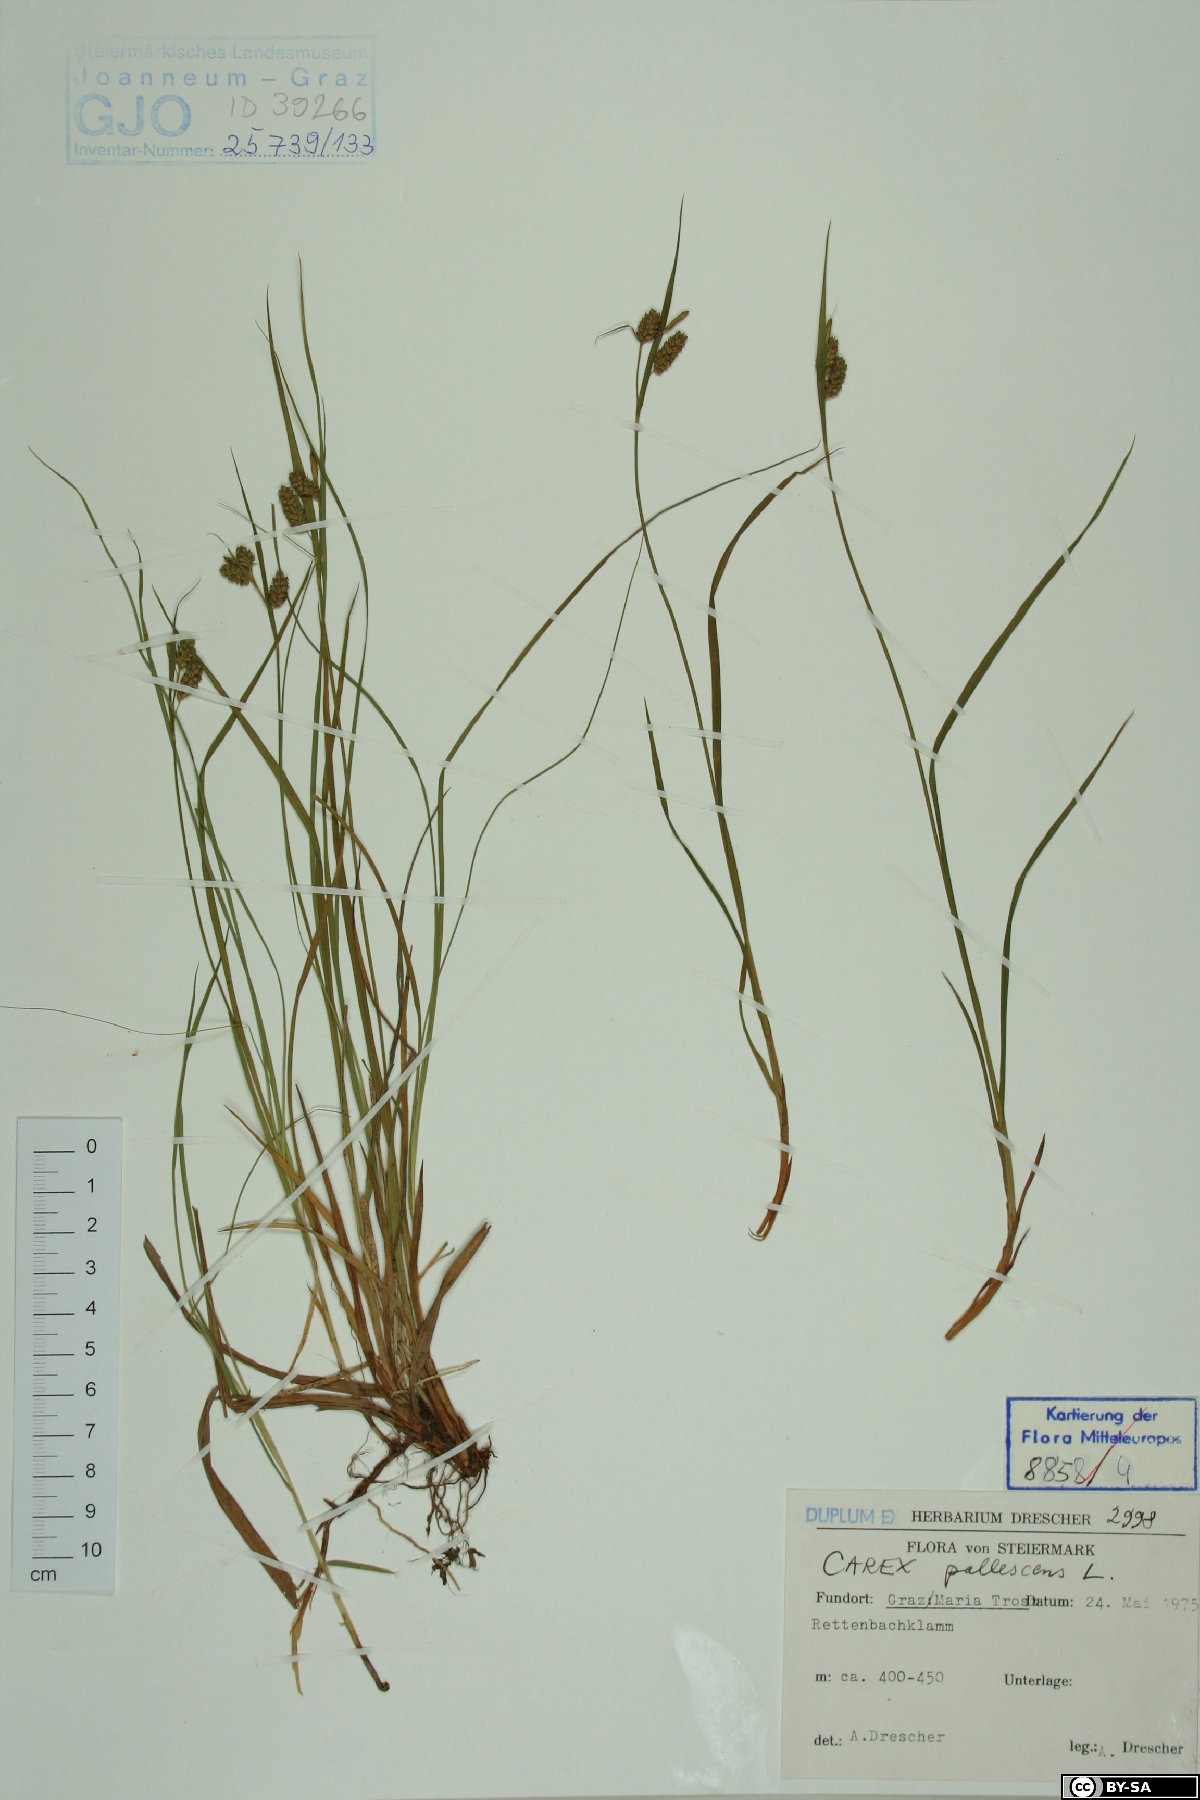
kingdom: Plantae
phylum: Tracheophyta
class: Liliopsida
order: Poales
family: Cyperaceae
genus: Carex
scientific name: Carex pallescens
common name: Pale sedge
